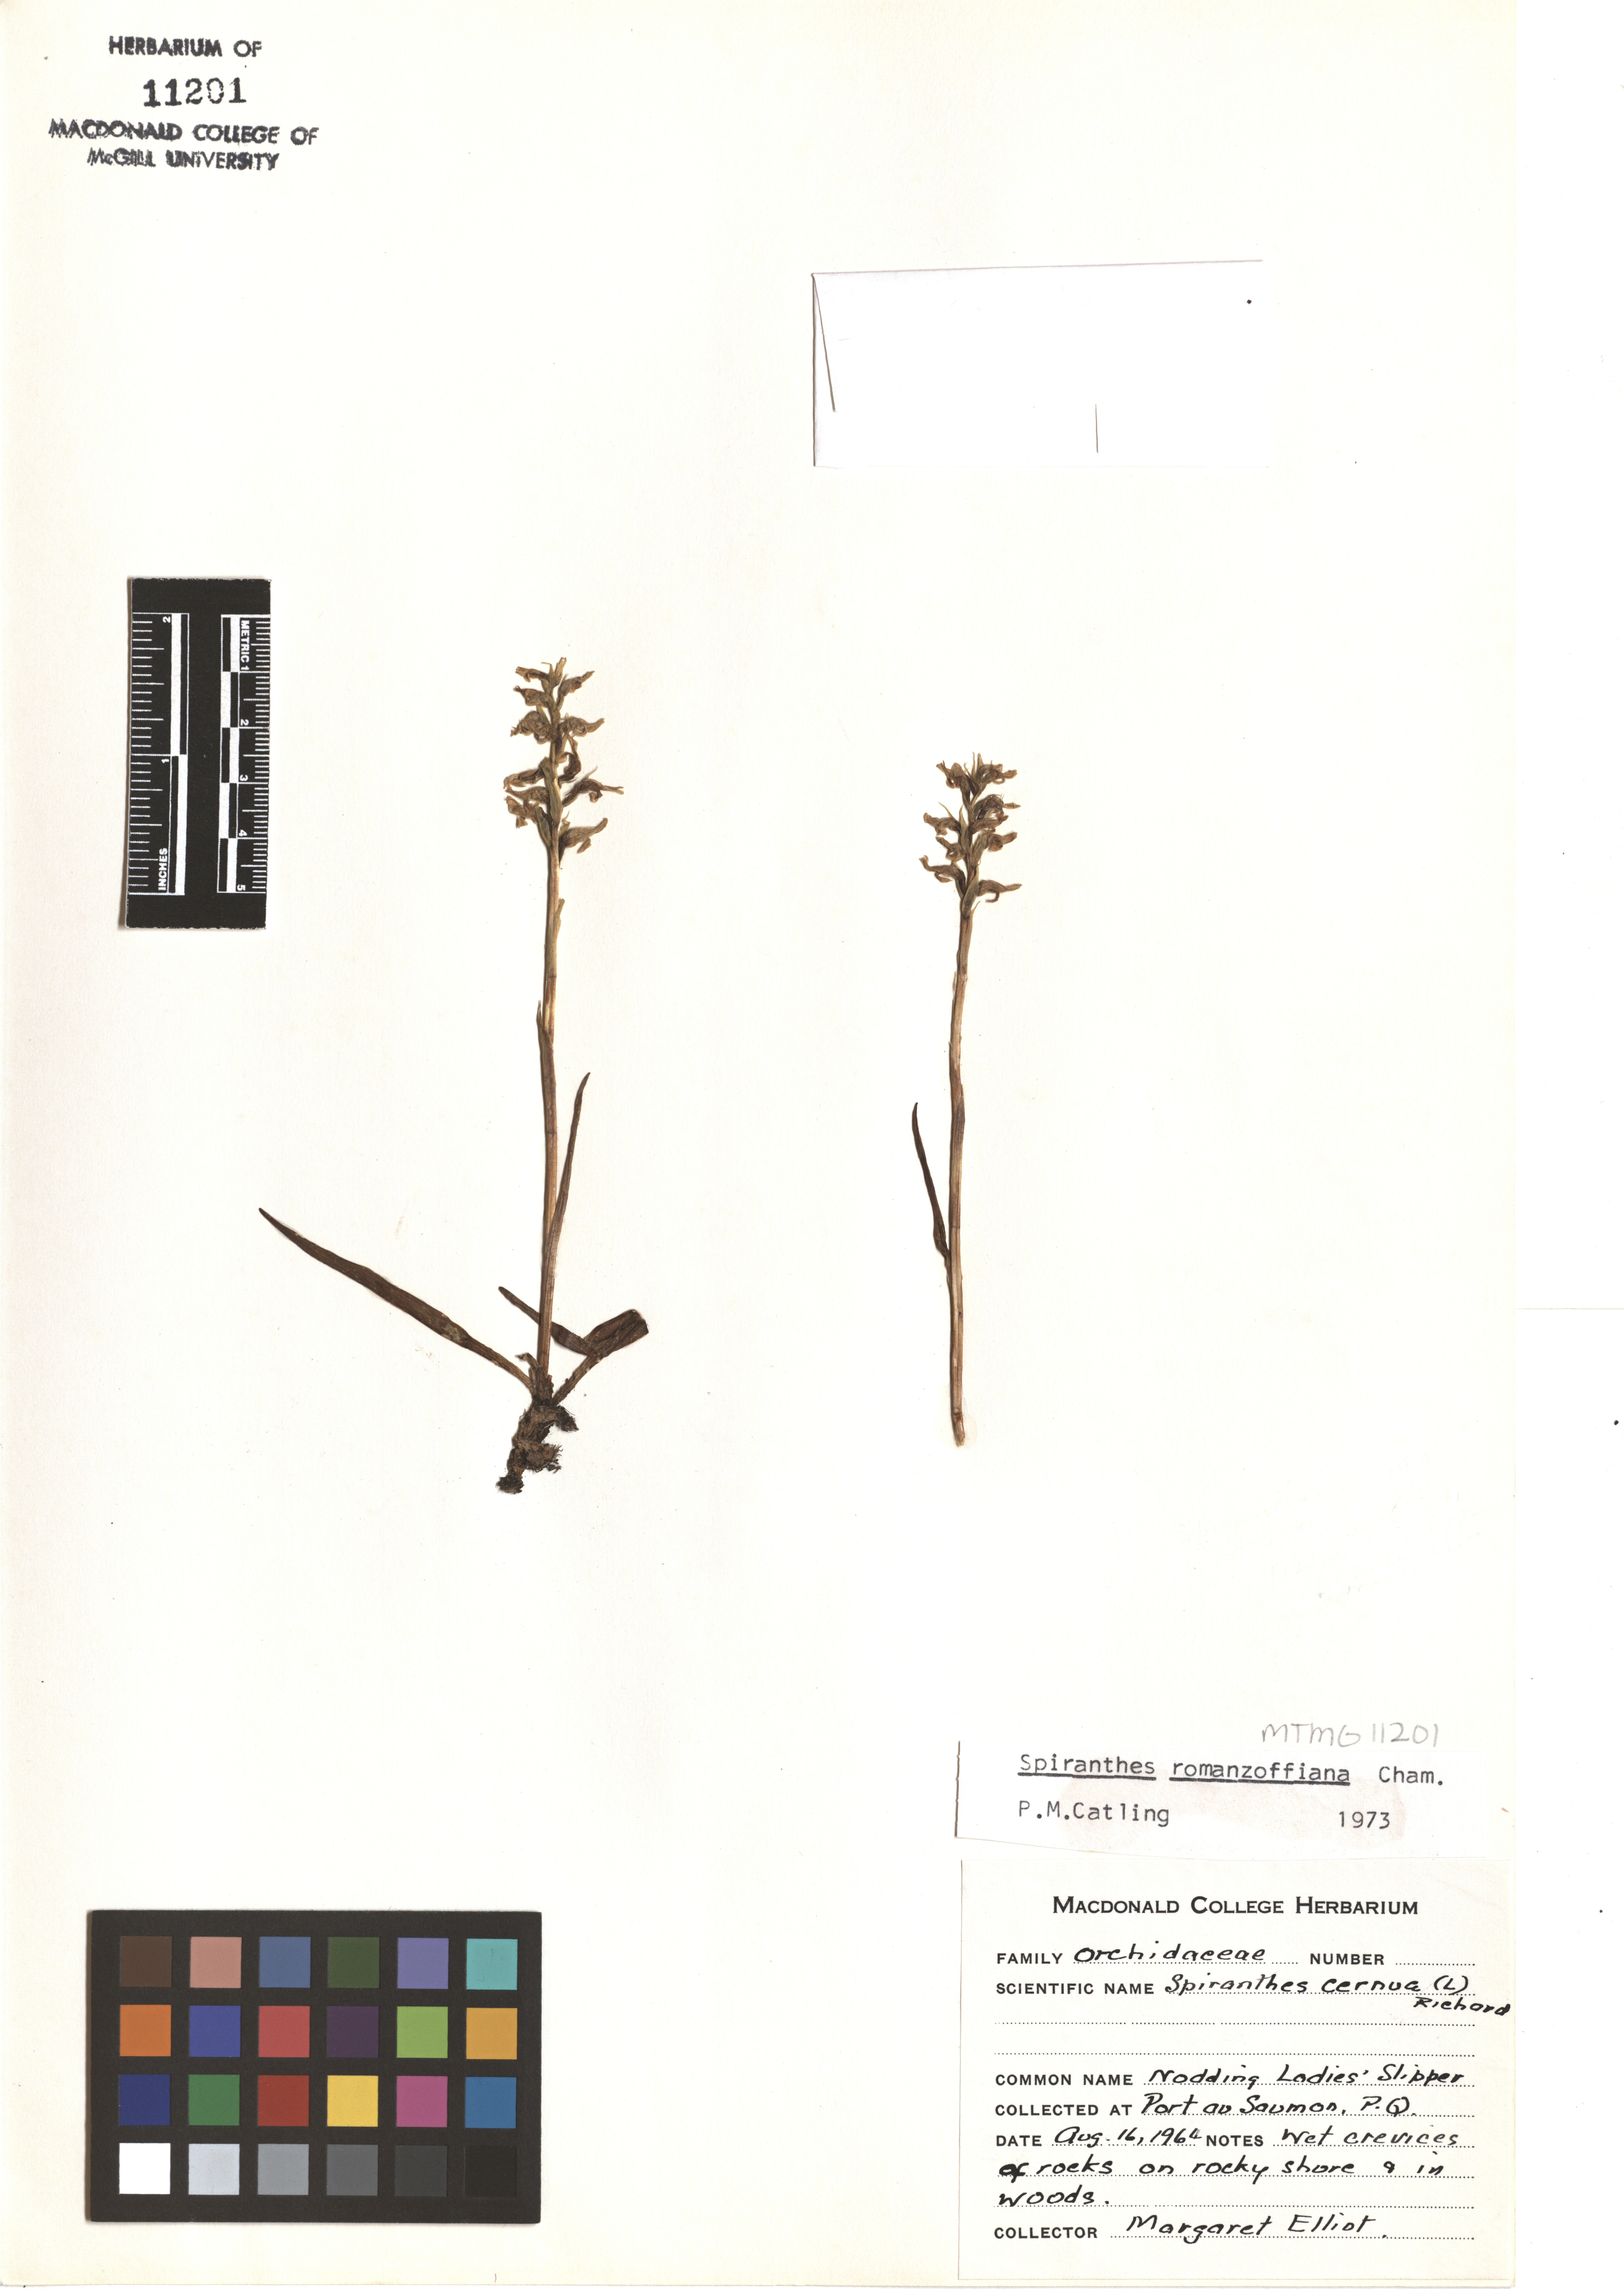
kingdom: Plantae
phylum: Tracheophyta
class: Liliopsida
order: Asparagales
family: Orchidaceae
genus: Spiranthes
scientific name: Spiranthes romanzoffiana
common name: Irish lady's-tresses
